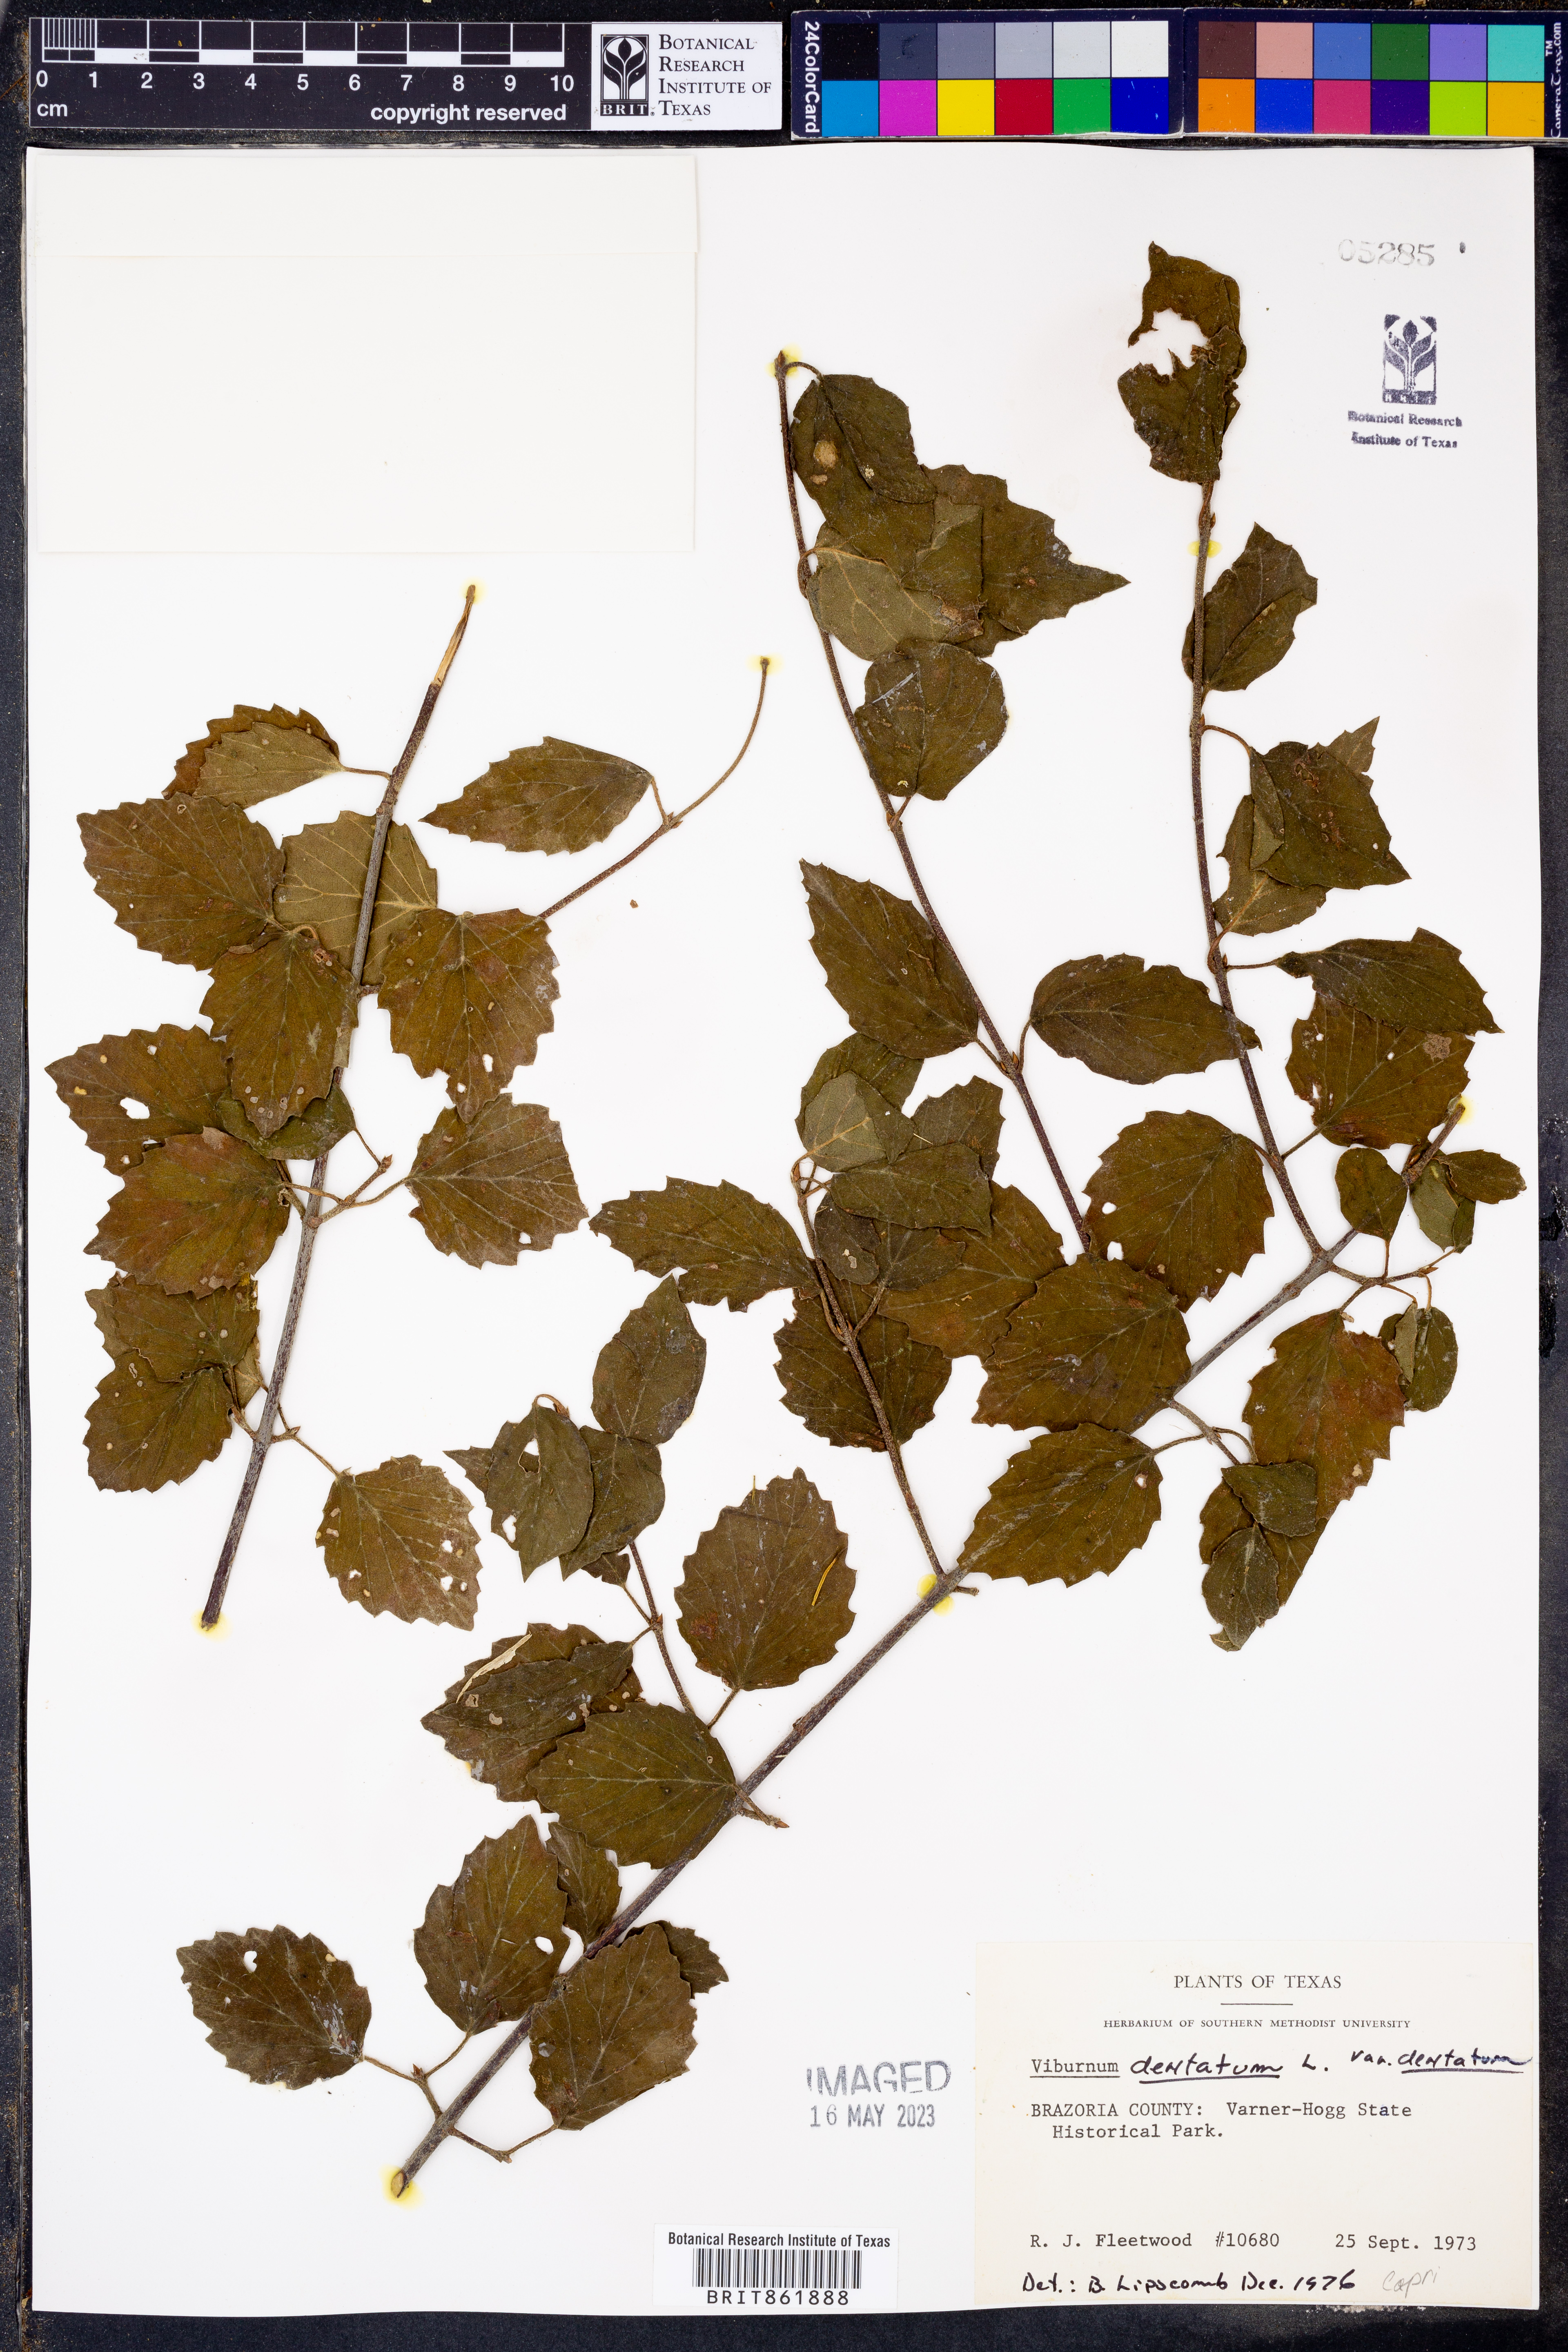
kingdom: Plantae
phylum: Tracheophyta
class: Magnoliopsida
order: Dipsacales
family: Viburnaceae
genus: Viburnum
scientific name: Viburnum dentatum
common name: Arrow-wood
